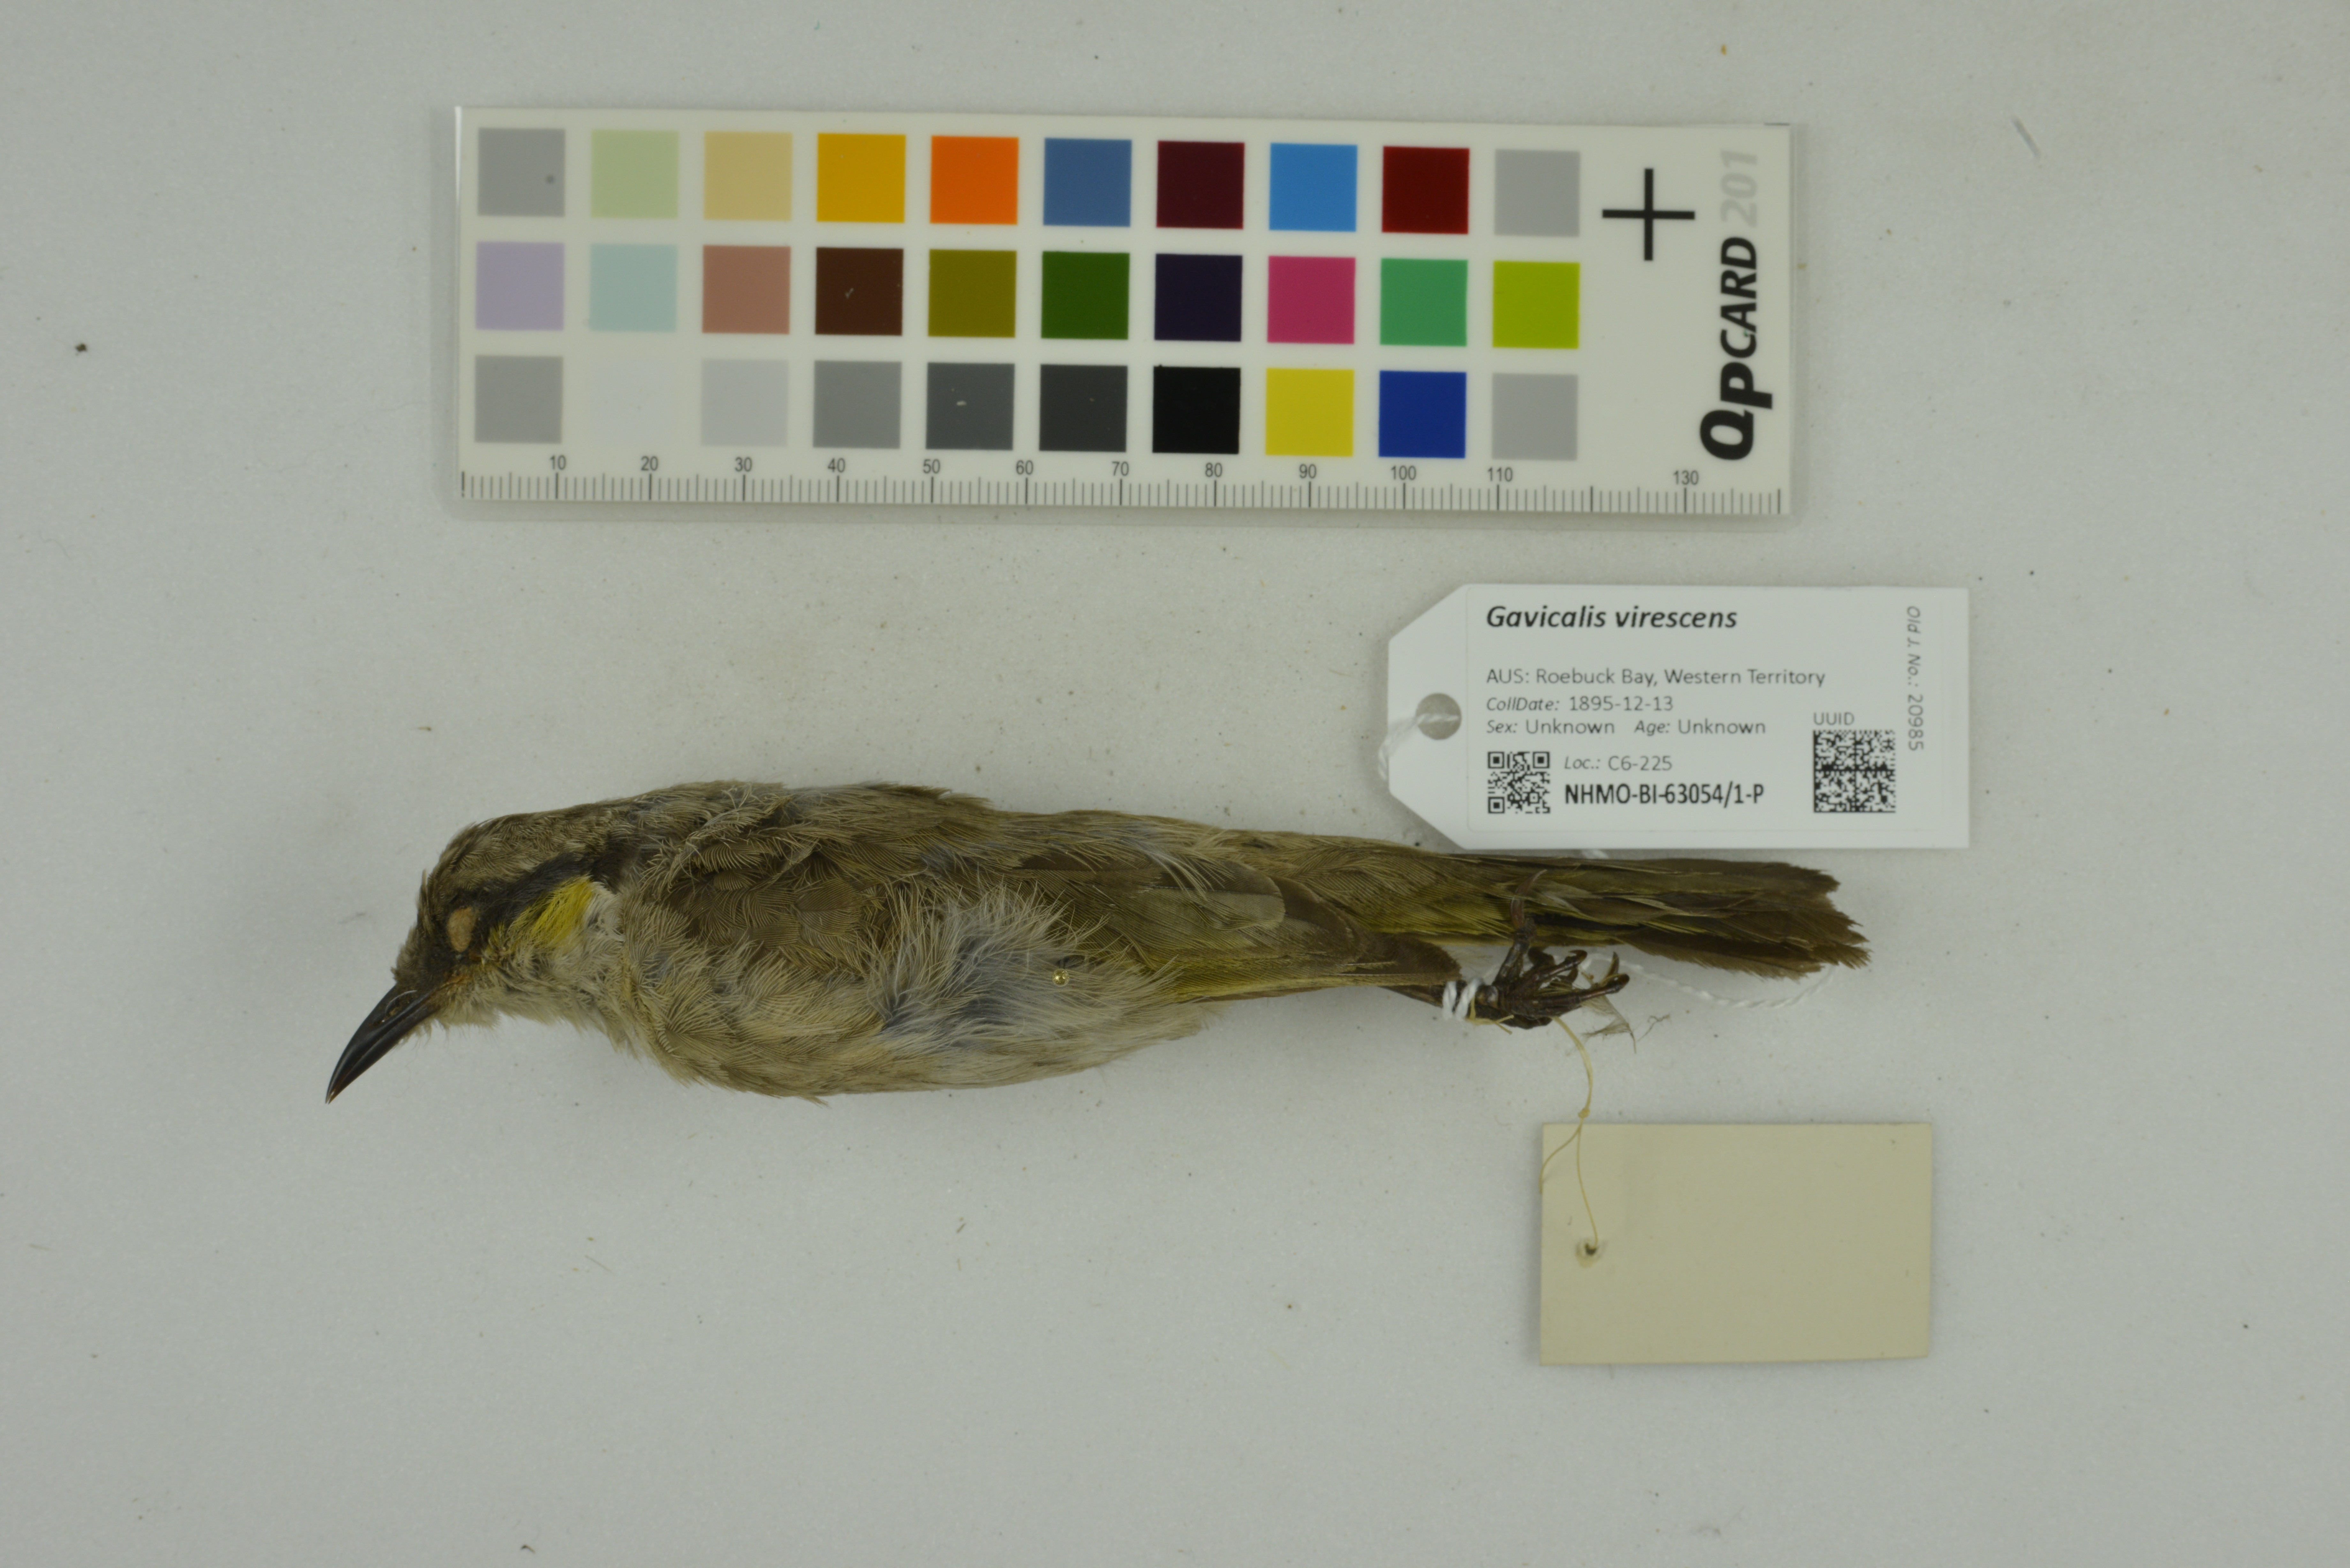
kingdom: Animalia
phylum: Chordata
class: Aves
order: Passeriformes
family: Meliphagidae
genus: Gavicalis
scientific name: Gavicalis virescens
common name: Singing honeyeater
